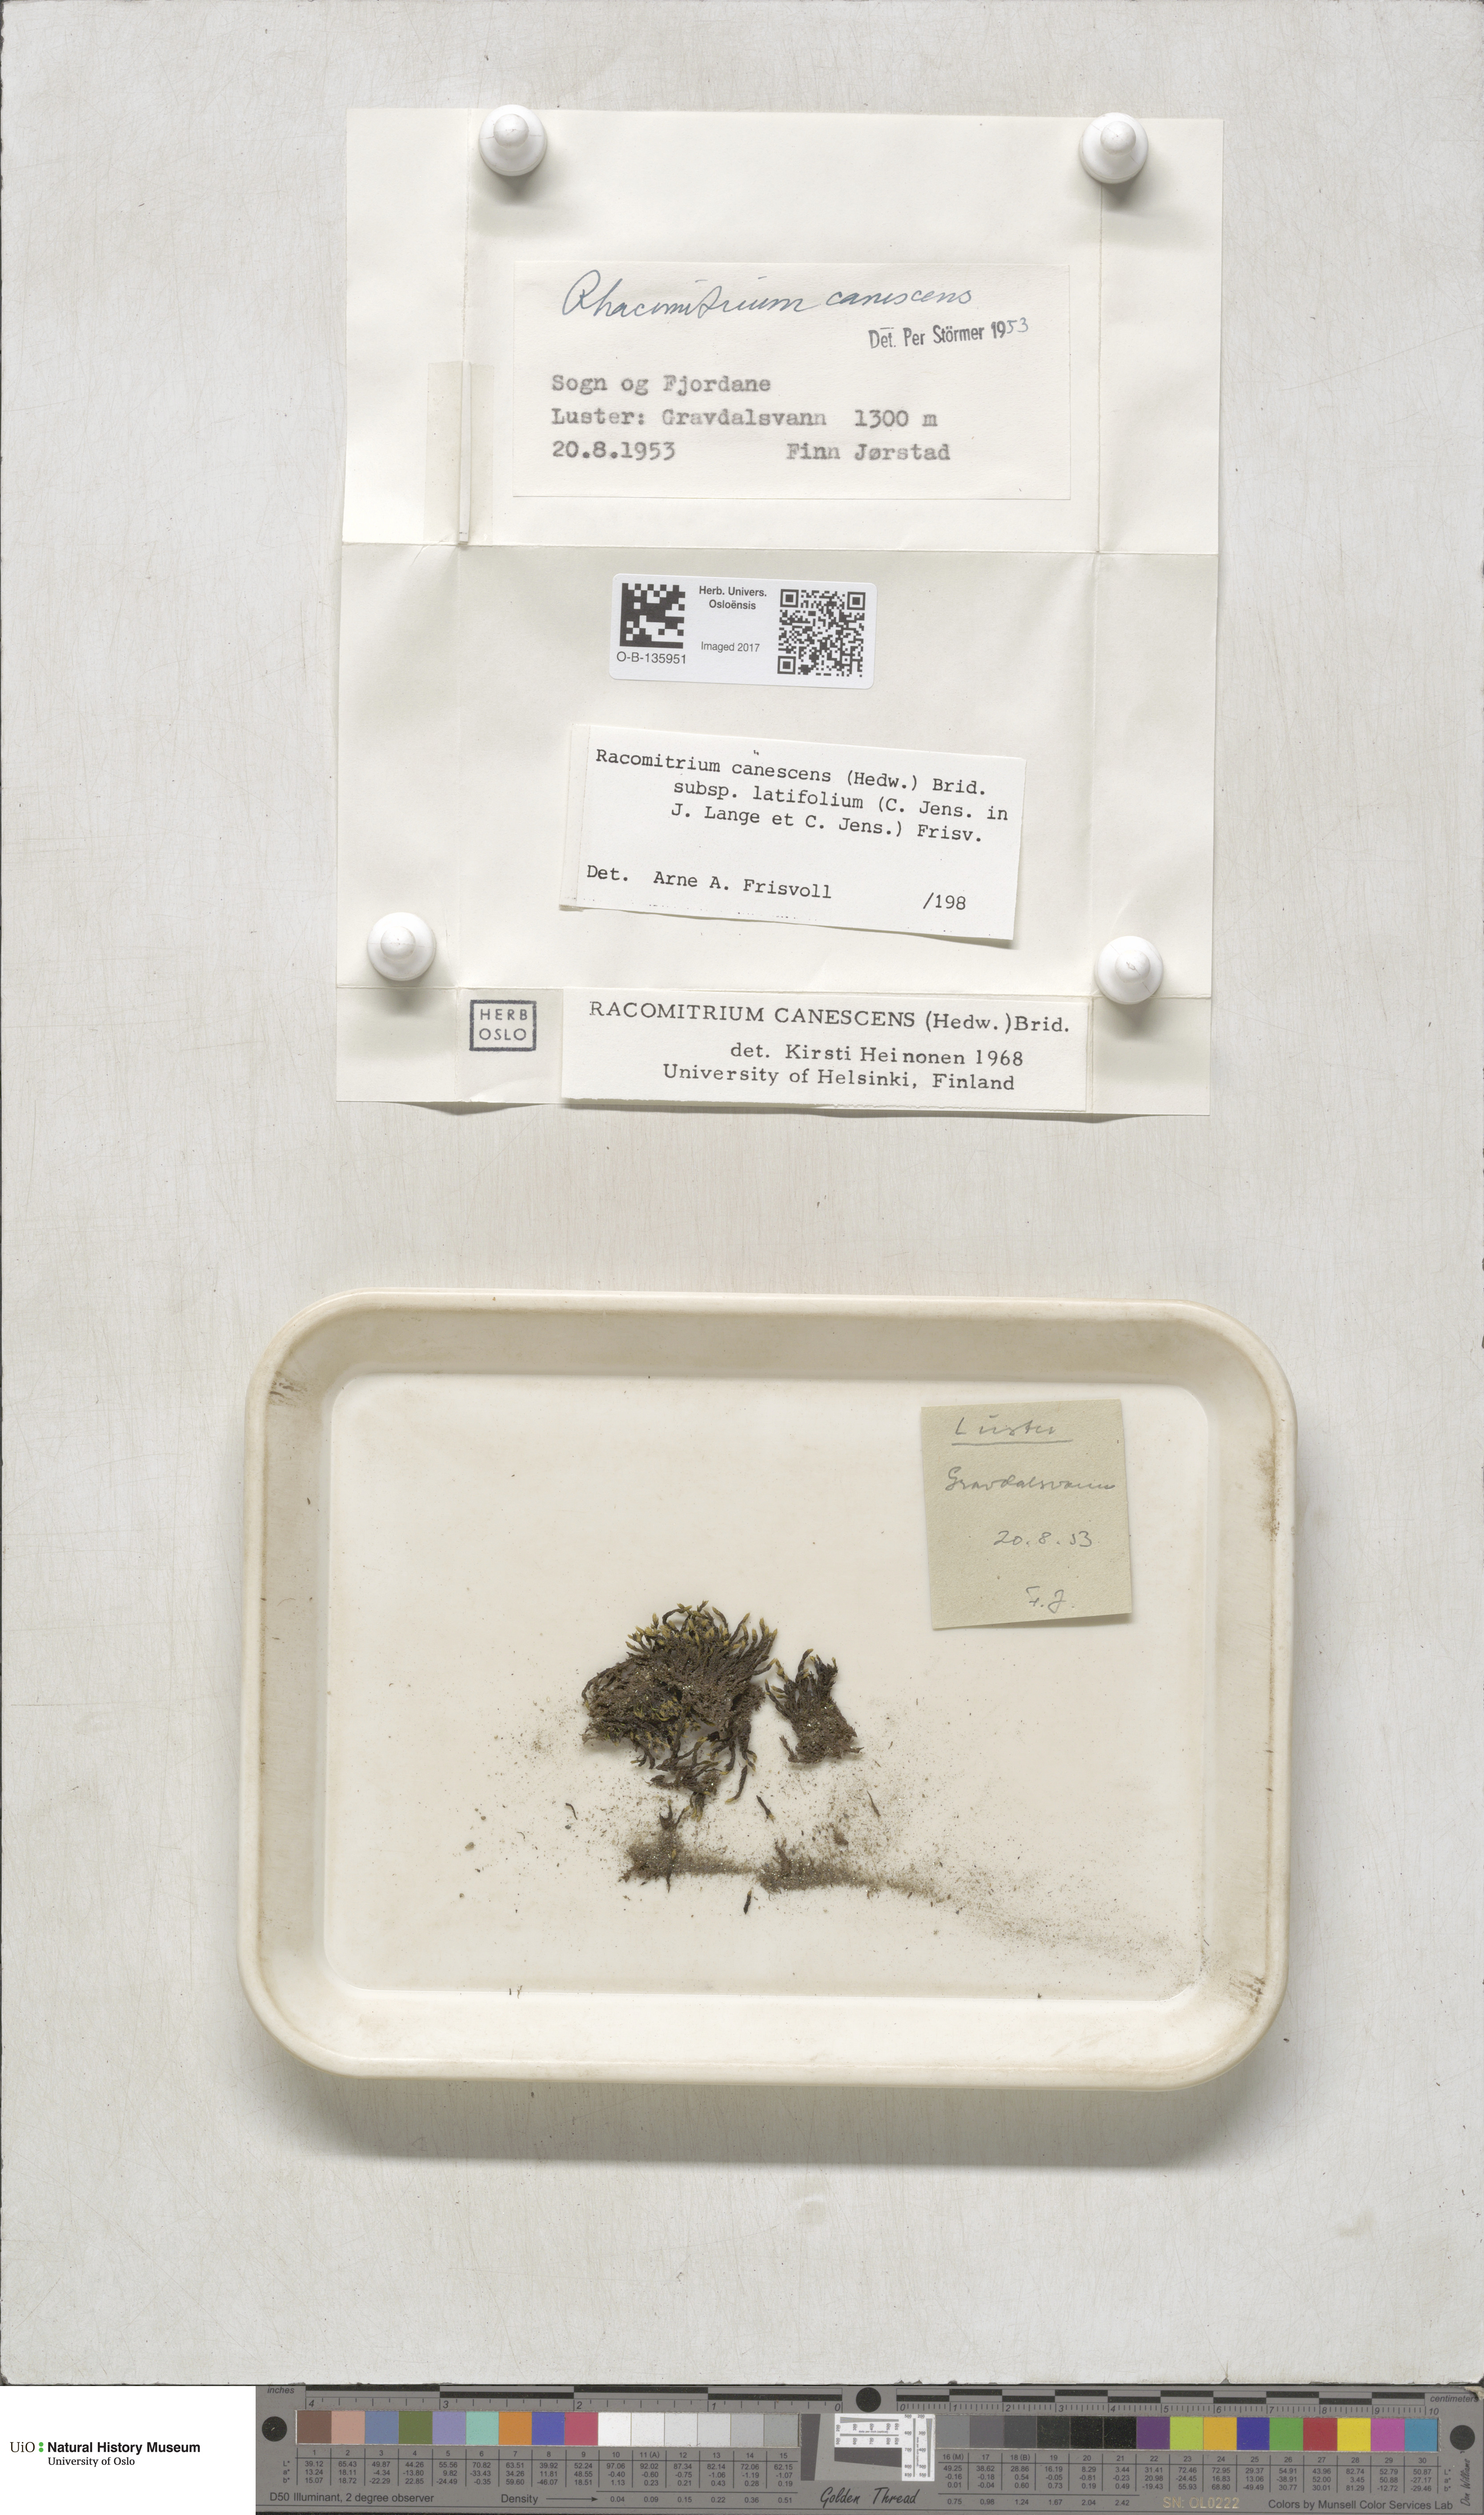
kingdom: Plantae
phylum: Bryophyta
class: Bryopsida
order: Grimmiales
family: Grimmiaceae
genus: Niphotrichum
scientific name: Niphotrichum canescens
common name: Hoary fringe-moss
